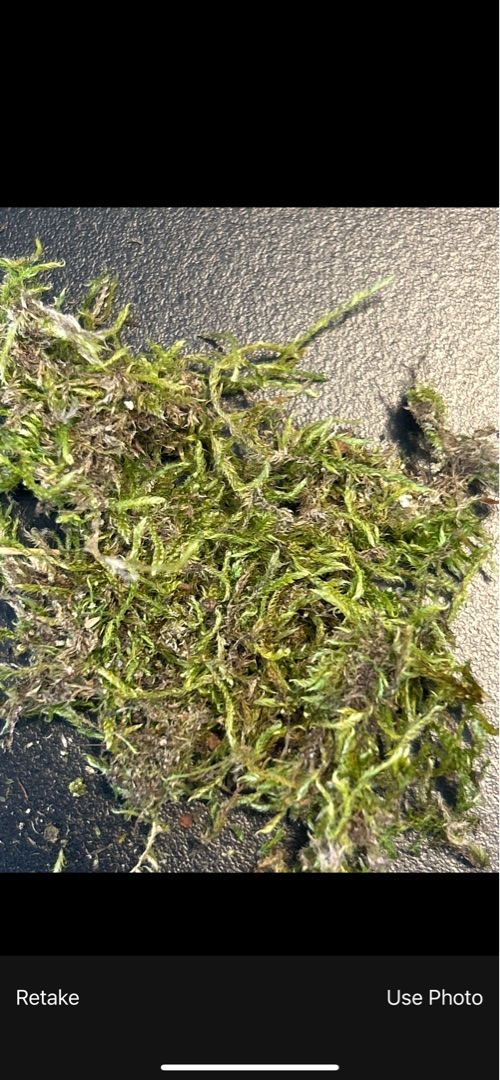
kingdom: Plantae
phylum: Bryophyta
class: Bryopsida
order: Hypnales
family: Hypnaceae
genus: Hypnum
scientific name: Hypnum
